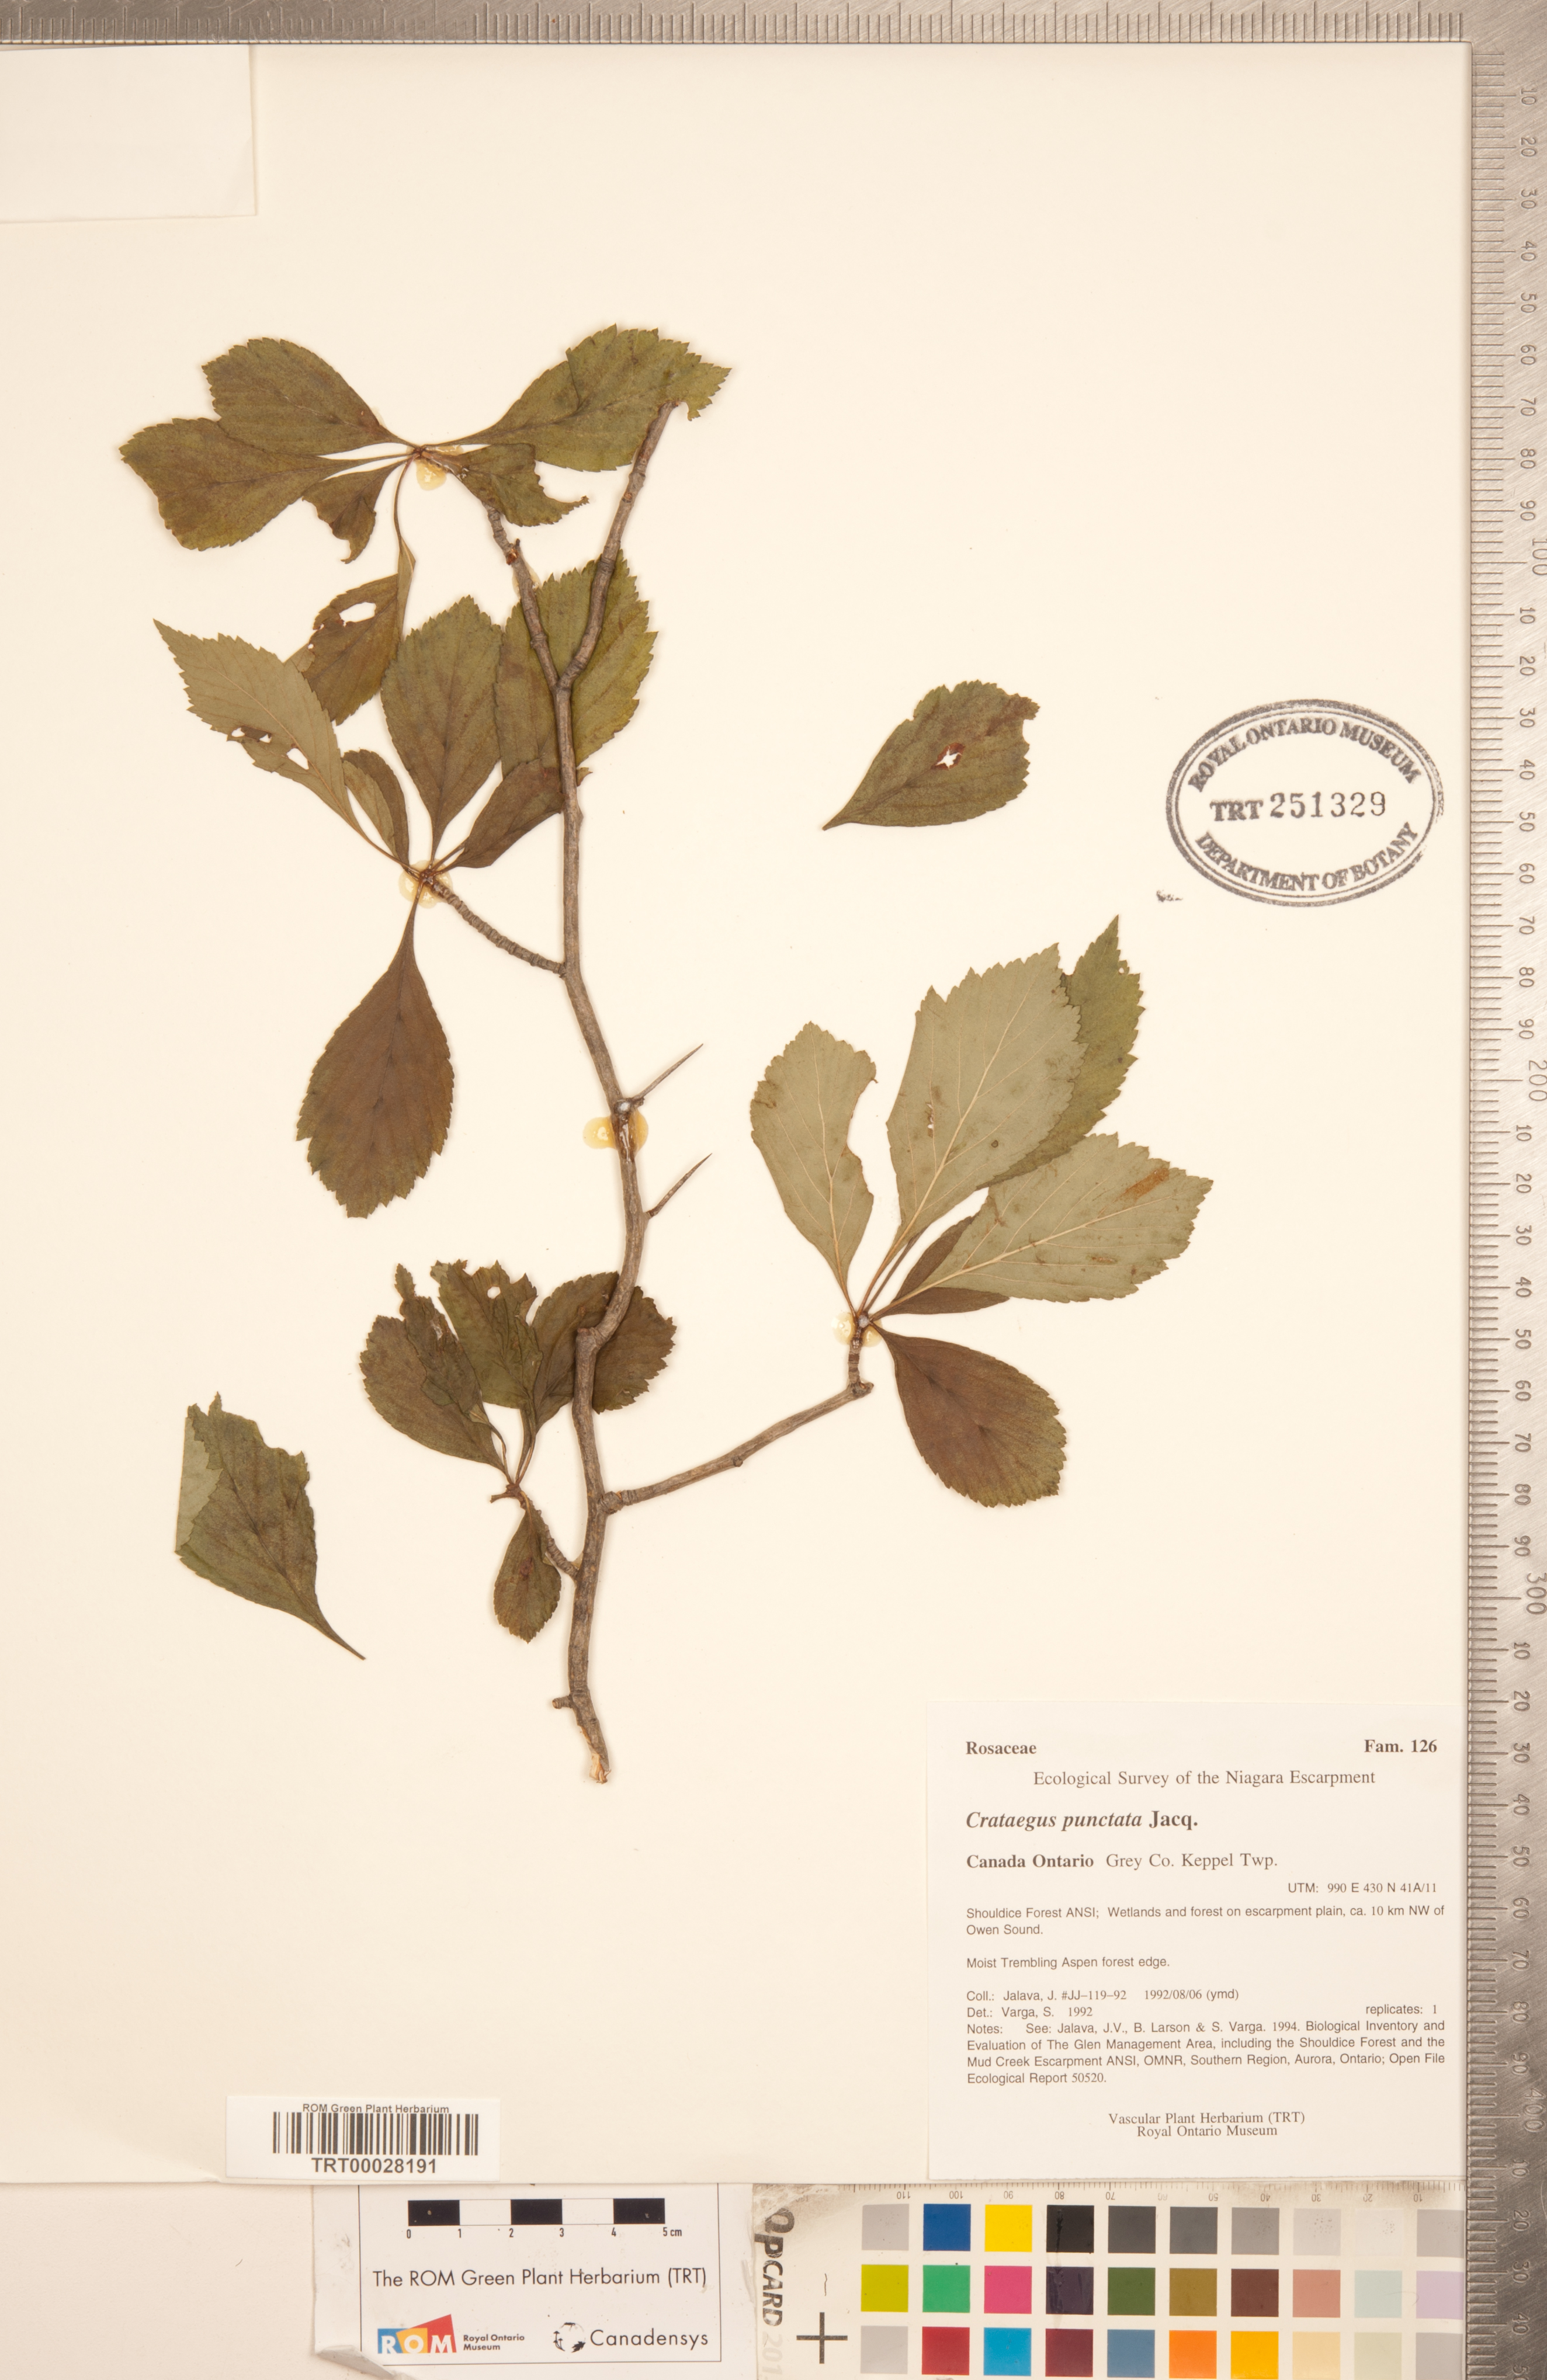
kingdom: Plantae
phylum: Tracheophyta
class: Magnoliopsida
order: Rosales
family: Rosaceae
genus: Crataegus
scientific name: Crataegus punctata
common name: Dotted hawthorn
